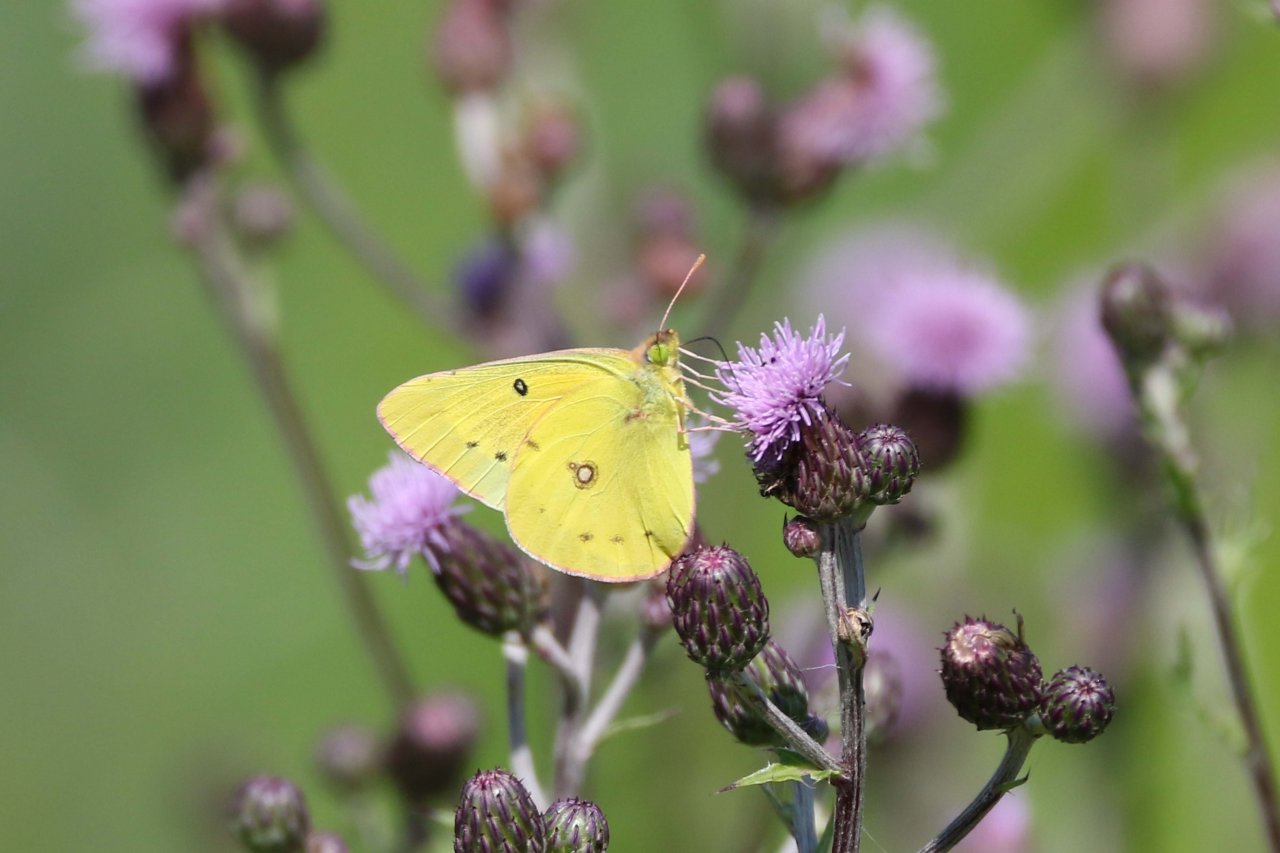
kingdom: Animalia
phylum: Arthropoda
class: Insecta
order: Lepidoptera
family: Pieridae
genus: Colias
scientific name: Colias philodice
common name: Clouded Sulphur
